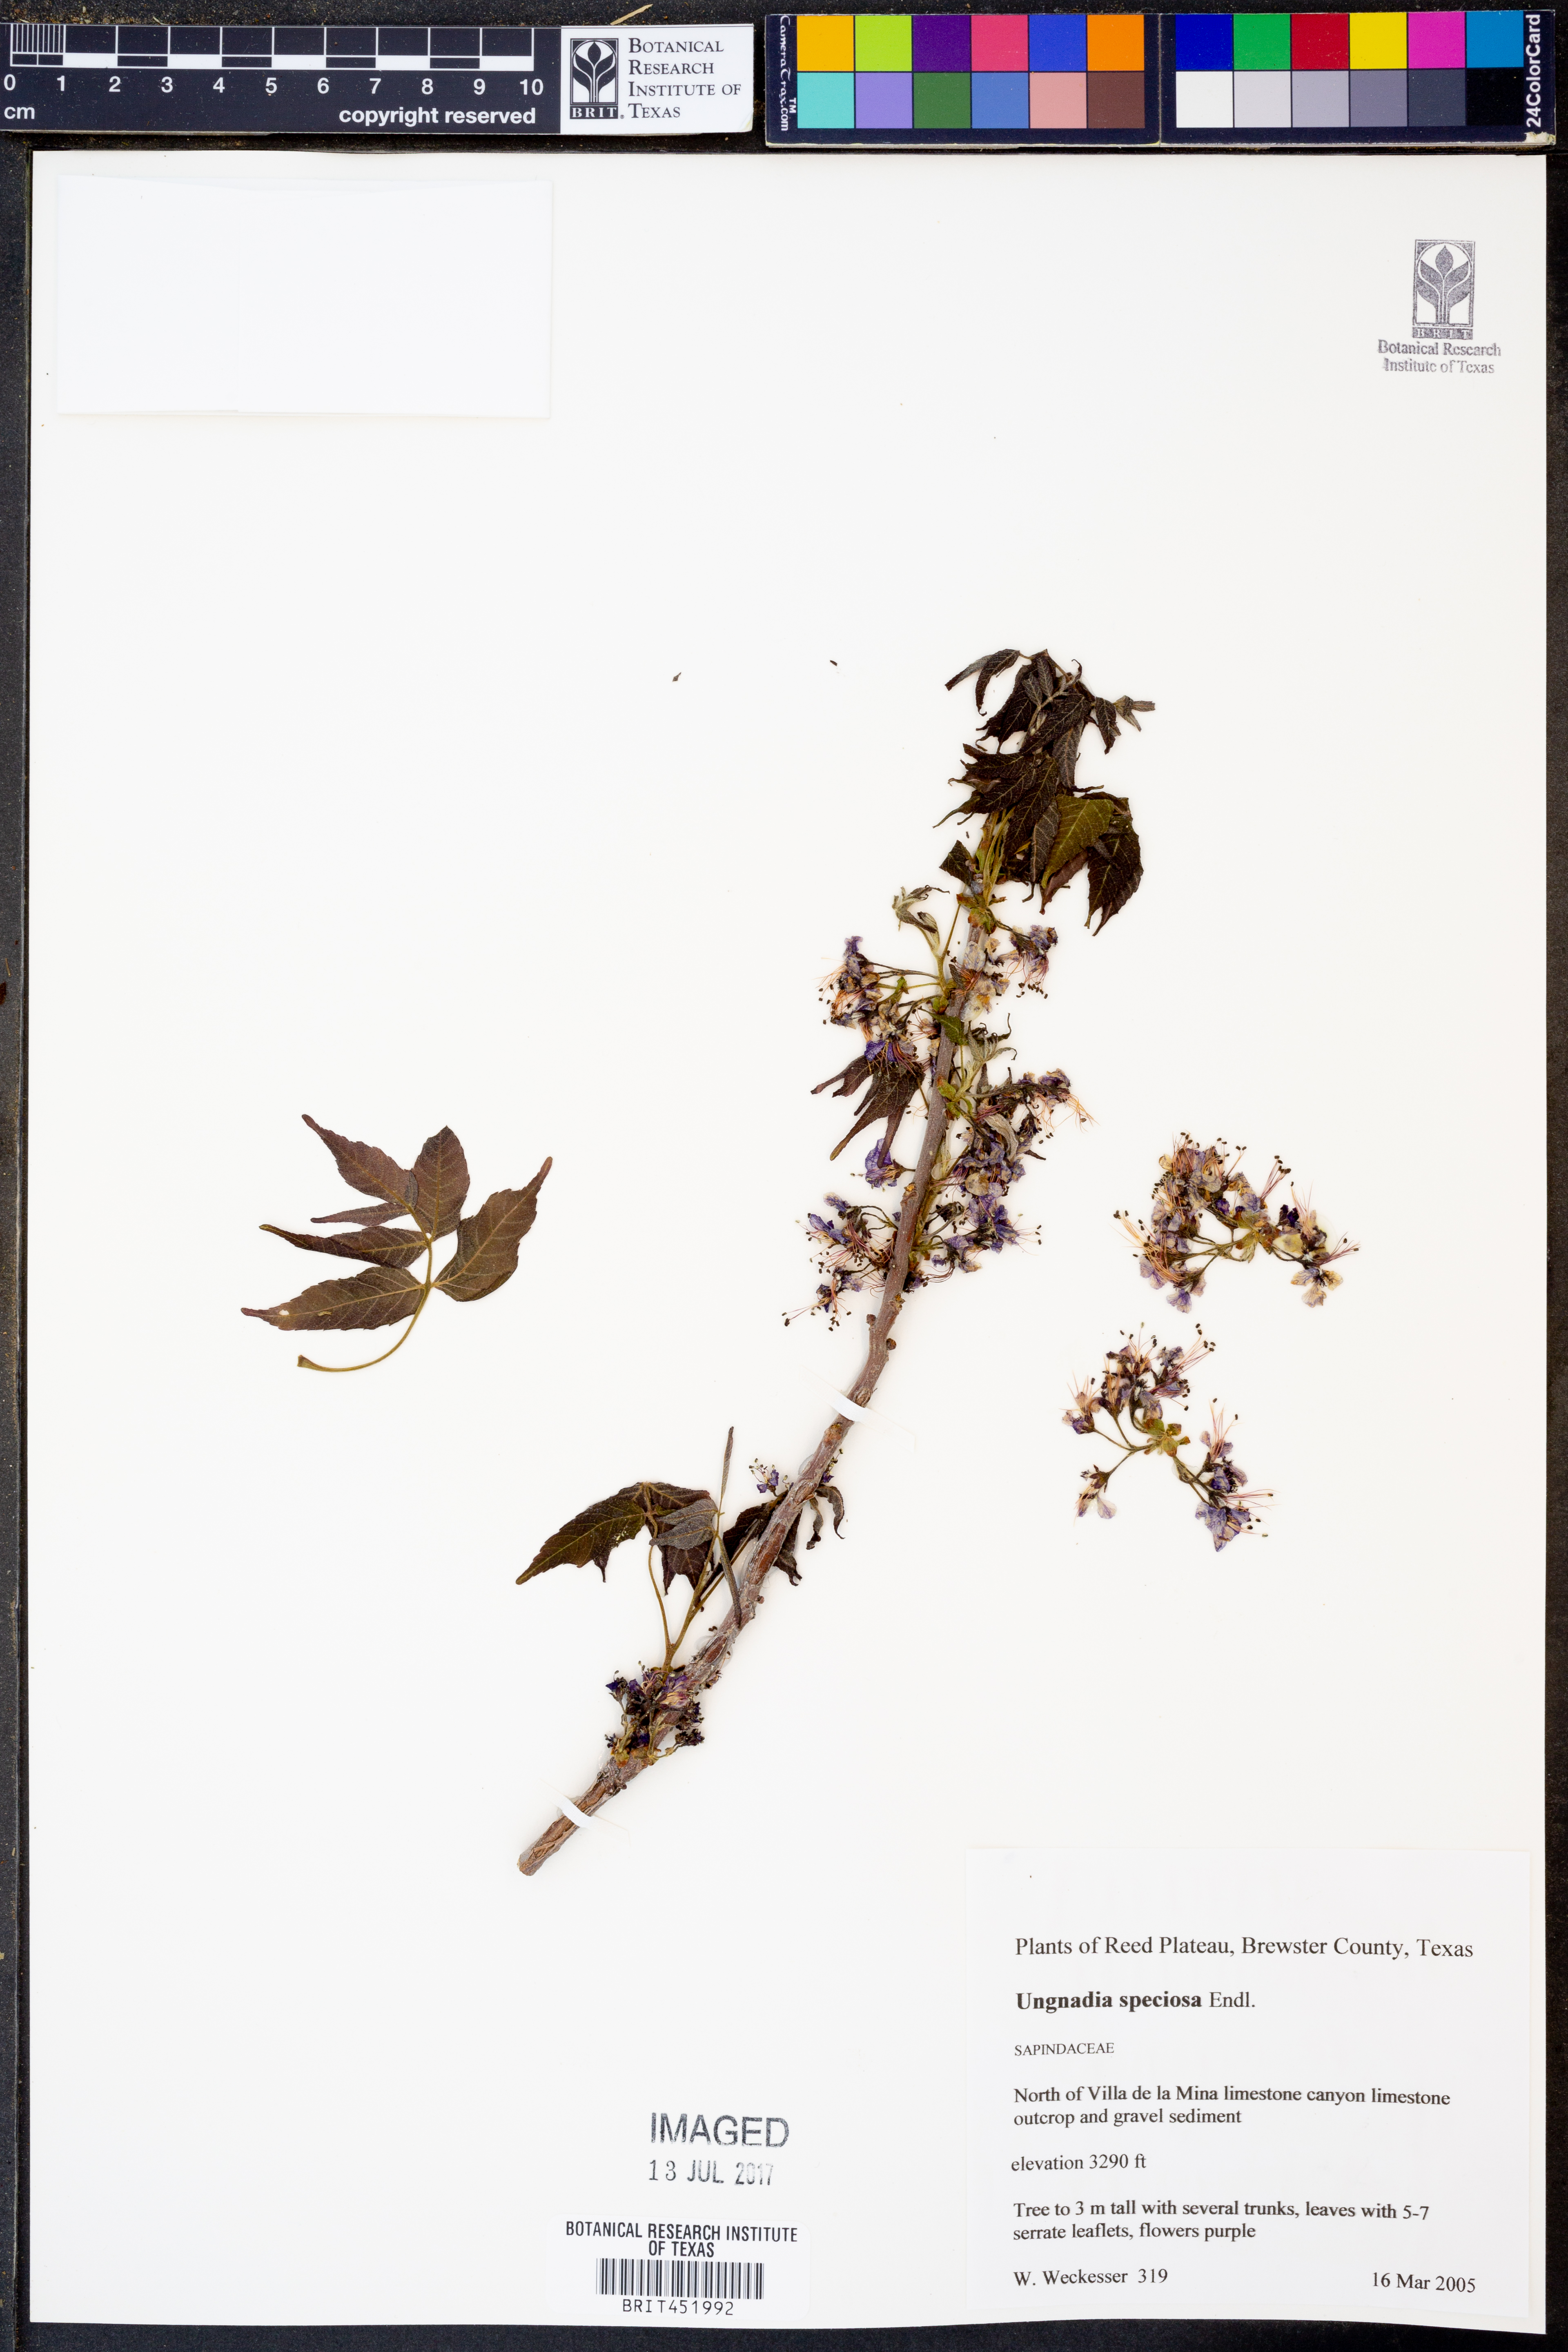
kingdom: Plantae
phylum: Tracheophyta
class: Magnoliopsida
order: Sapindales
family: Sapindaceae
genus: Ungnadia
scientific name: Ungnadia speciosa
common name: Texas-buckeye
